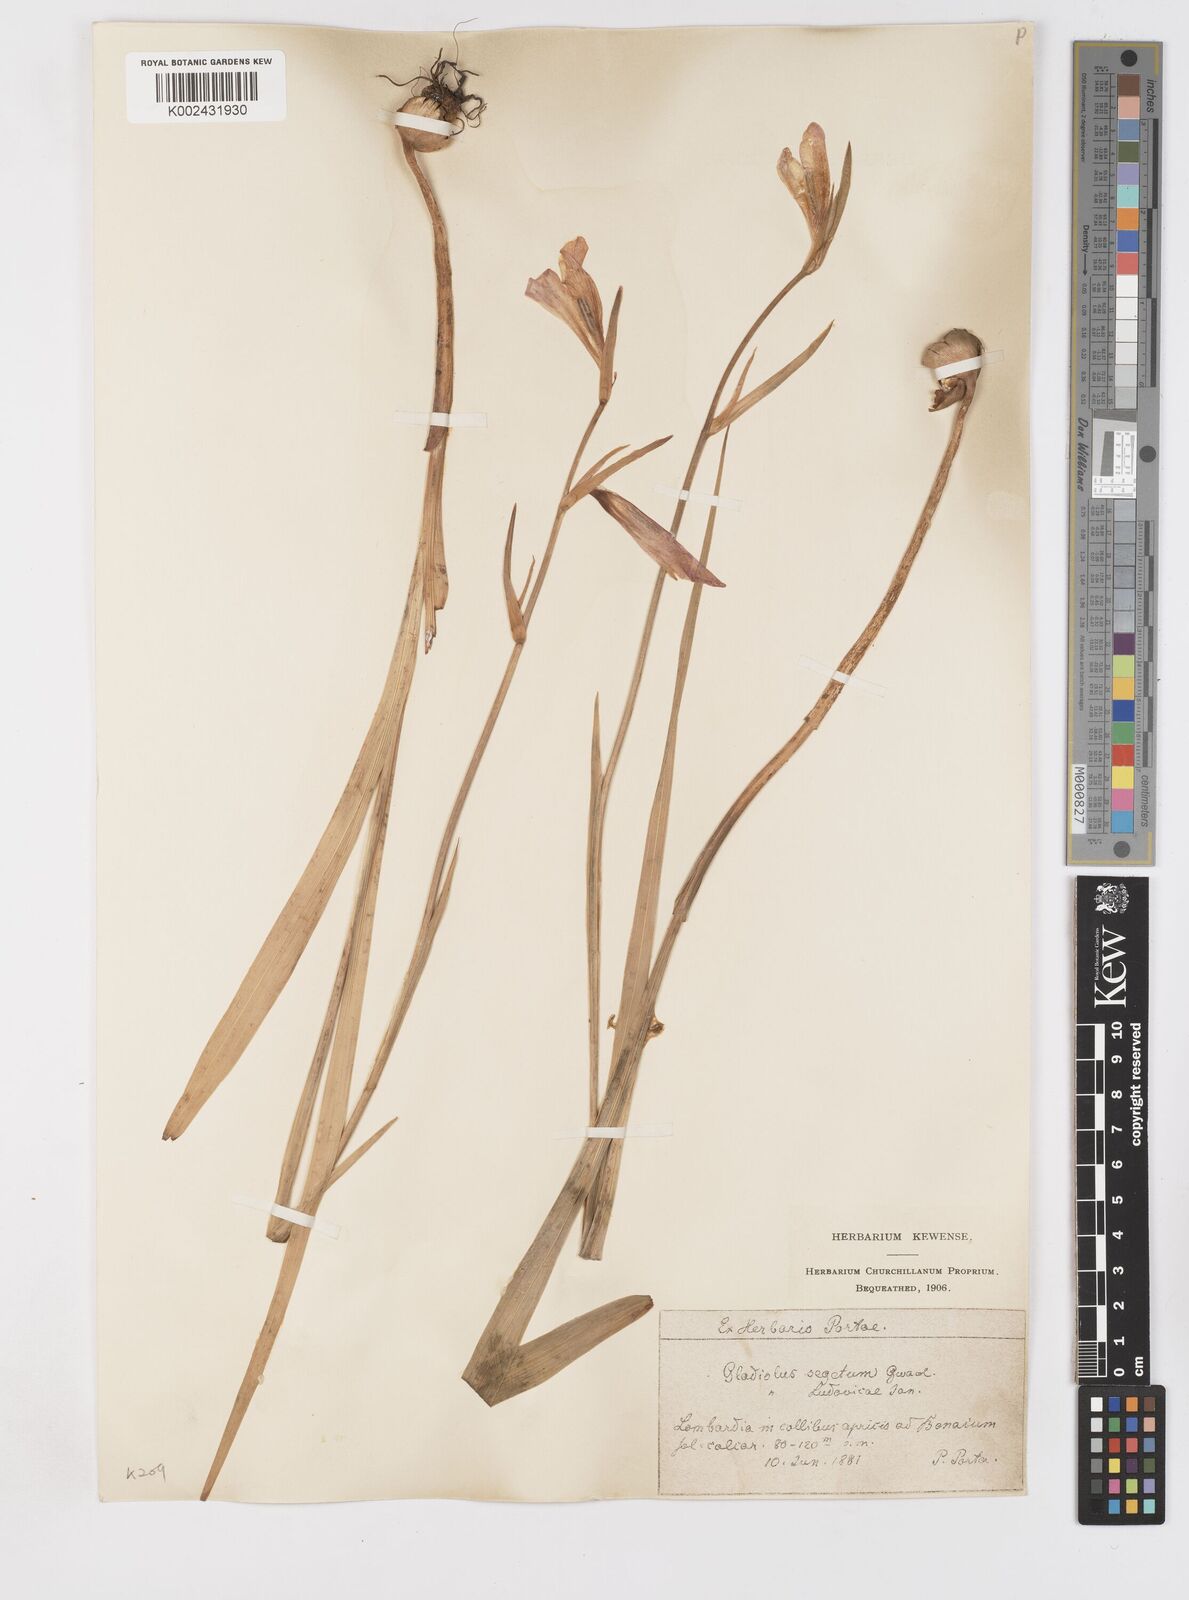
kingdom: Plantae
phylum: Tracheophyta
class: Liliopsida
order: Asparagales
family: Iridaceae
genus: Gladiolus
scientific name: Gladiolus italicus
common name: Field gladiolus
